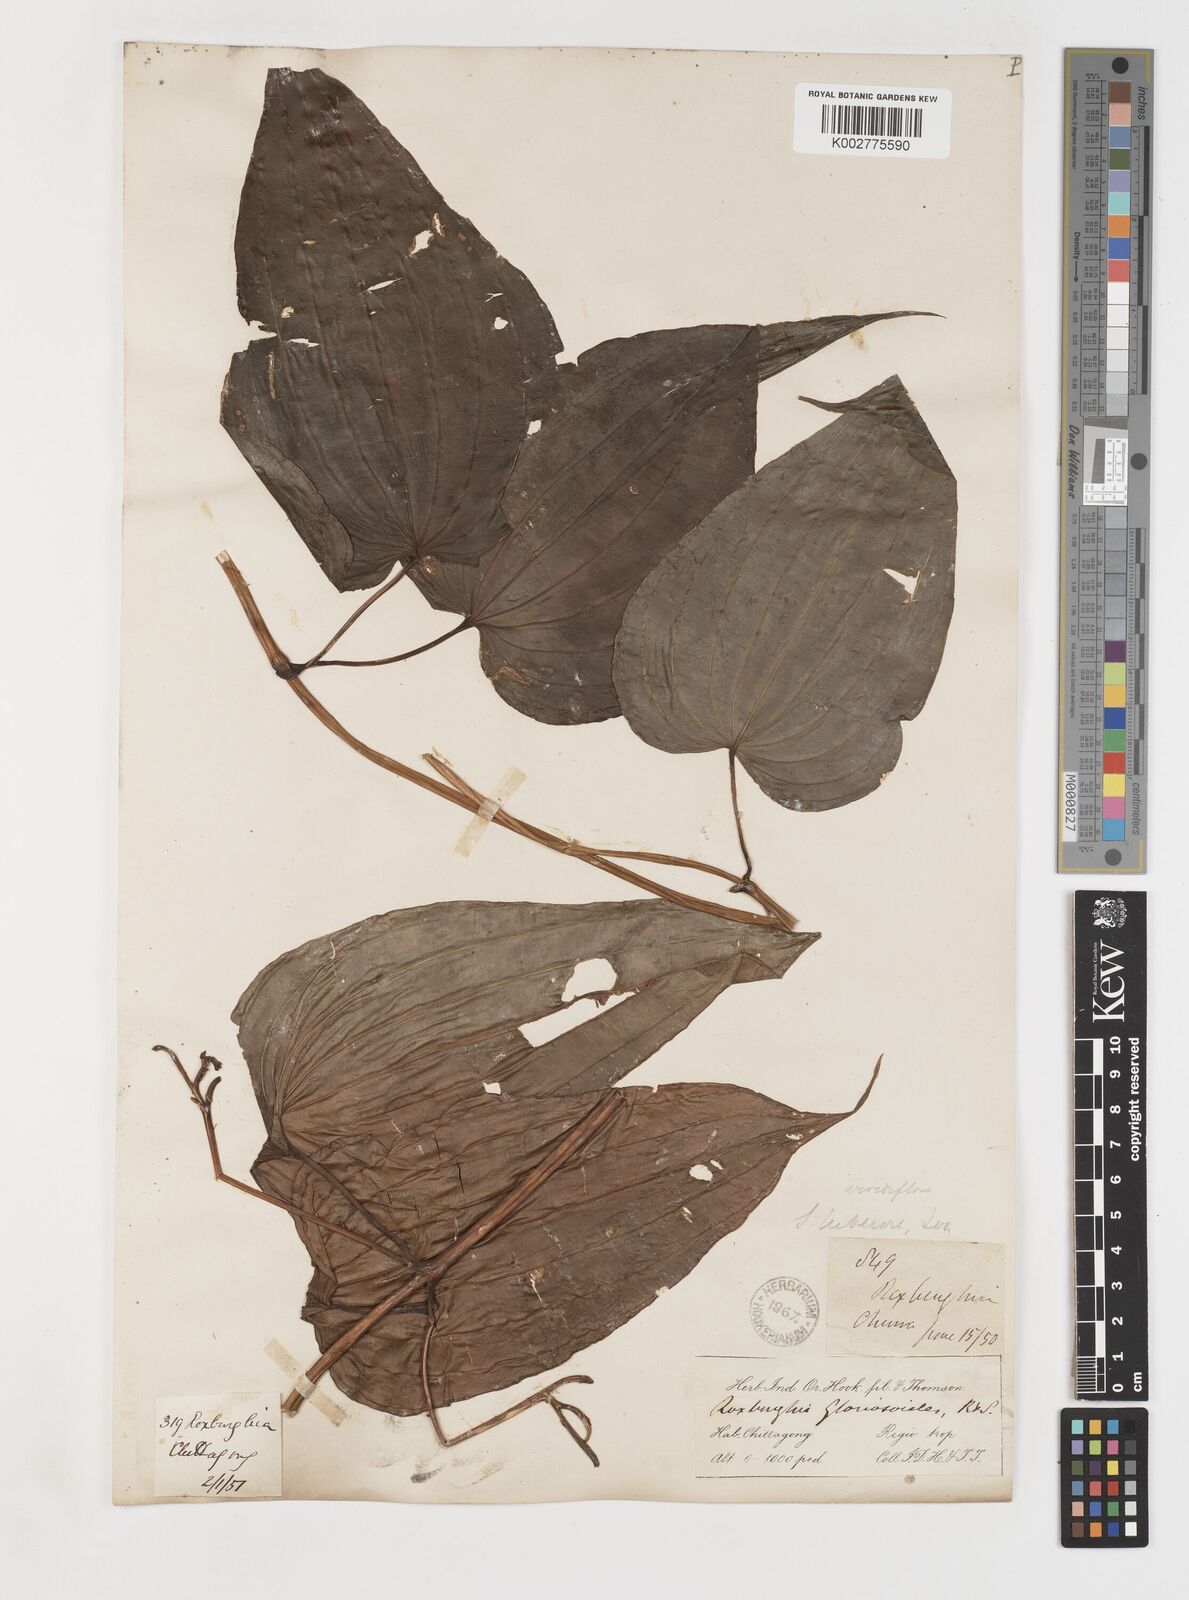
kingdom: Plantae
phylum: Tracheophyta
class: Liliopsida
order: Pandanales
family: Stemonaceae
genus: Stemona
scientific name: Stemona tuberosa
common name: Stemona
